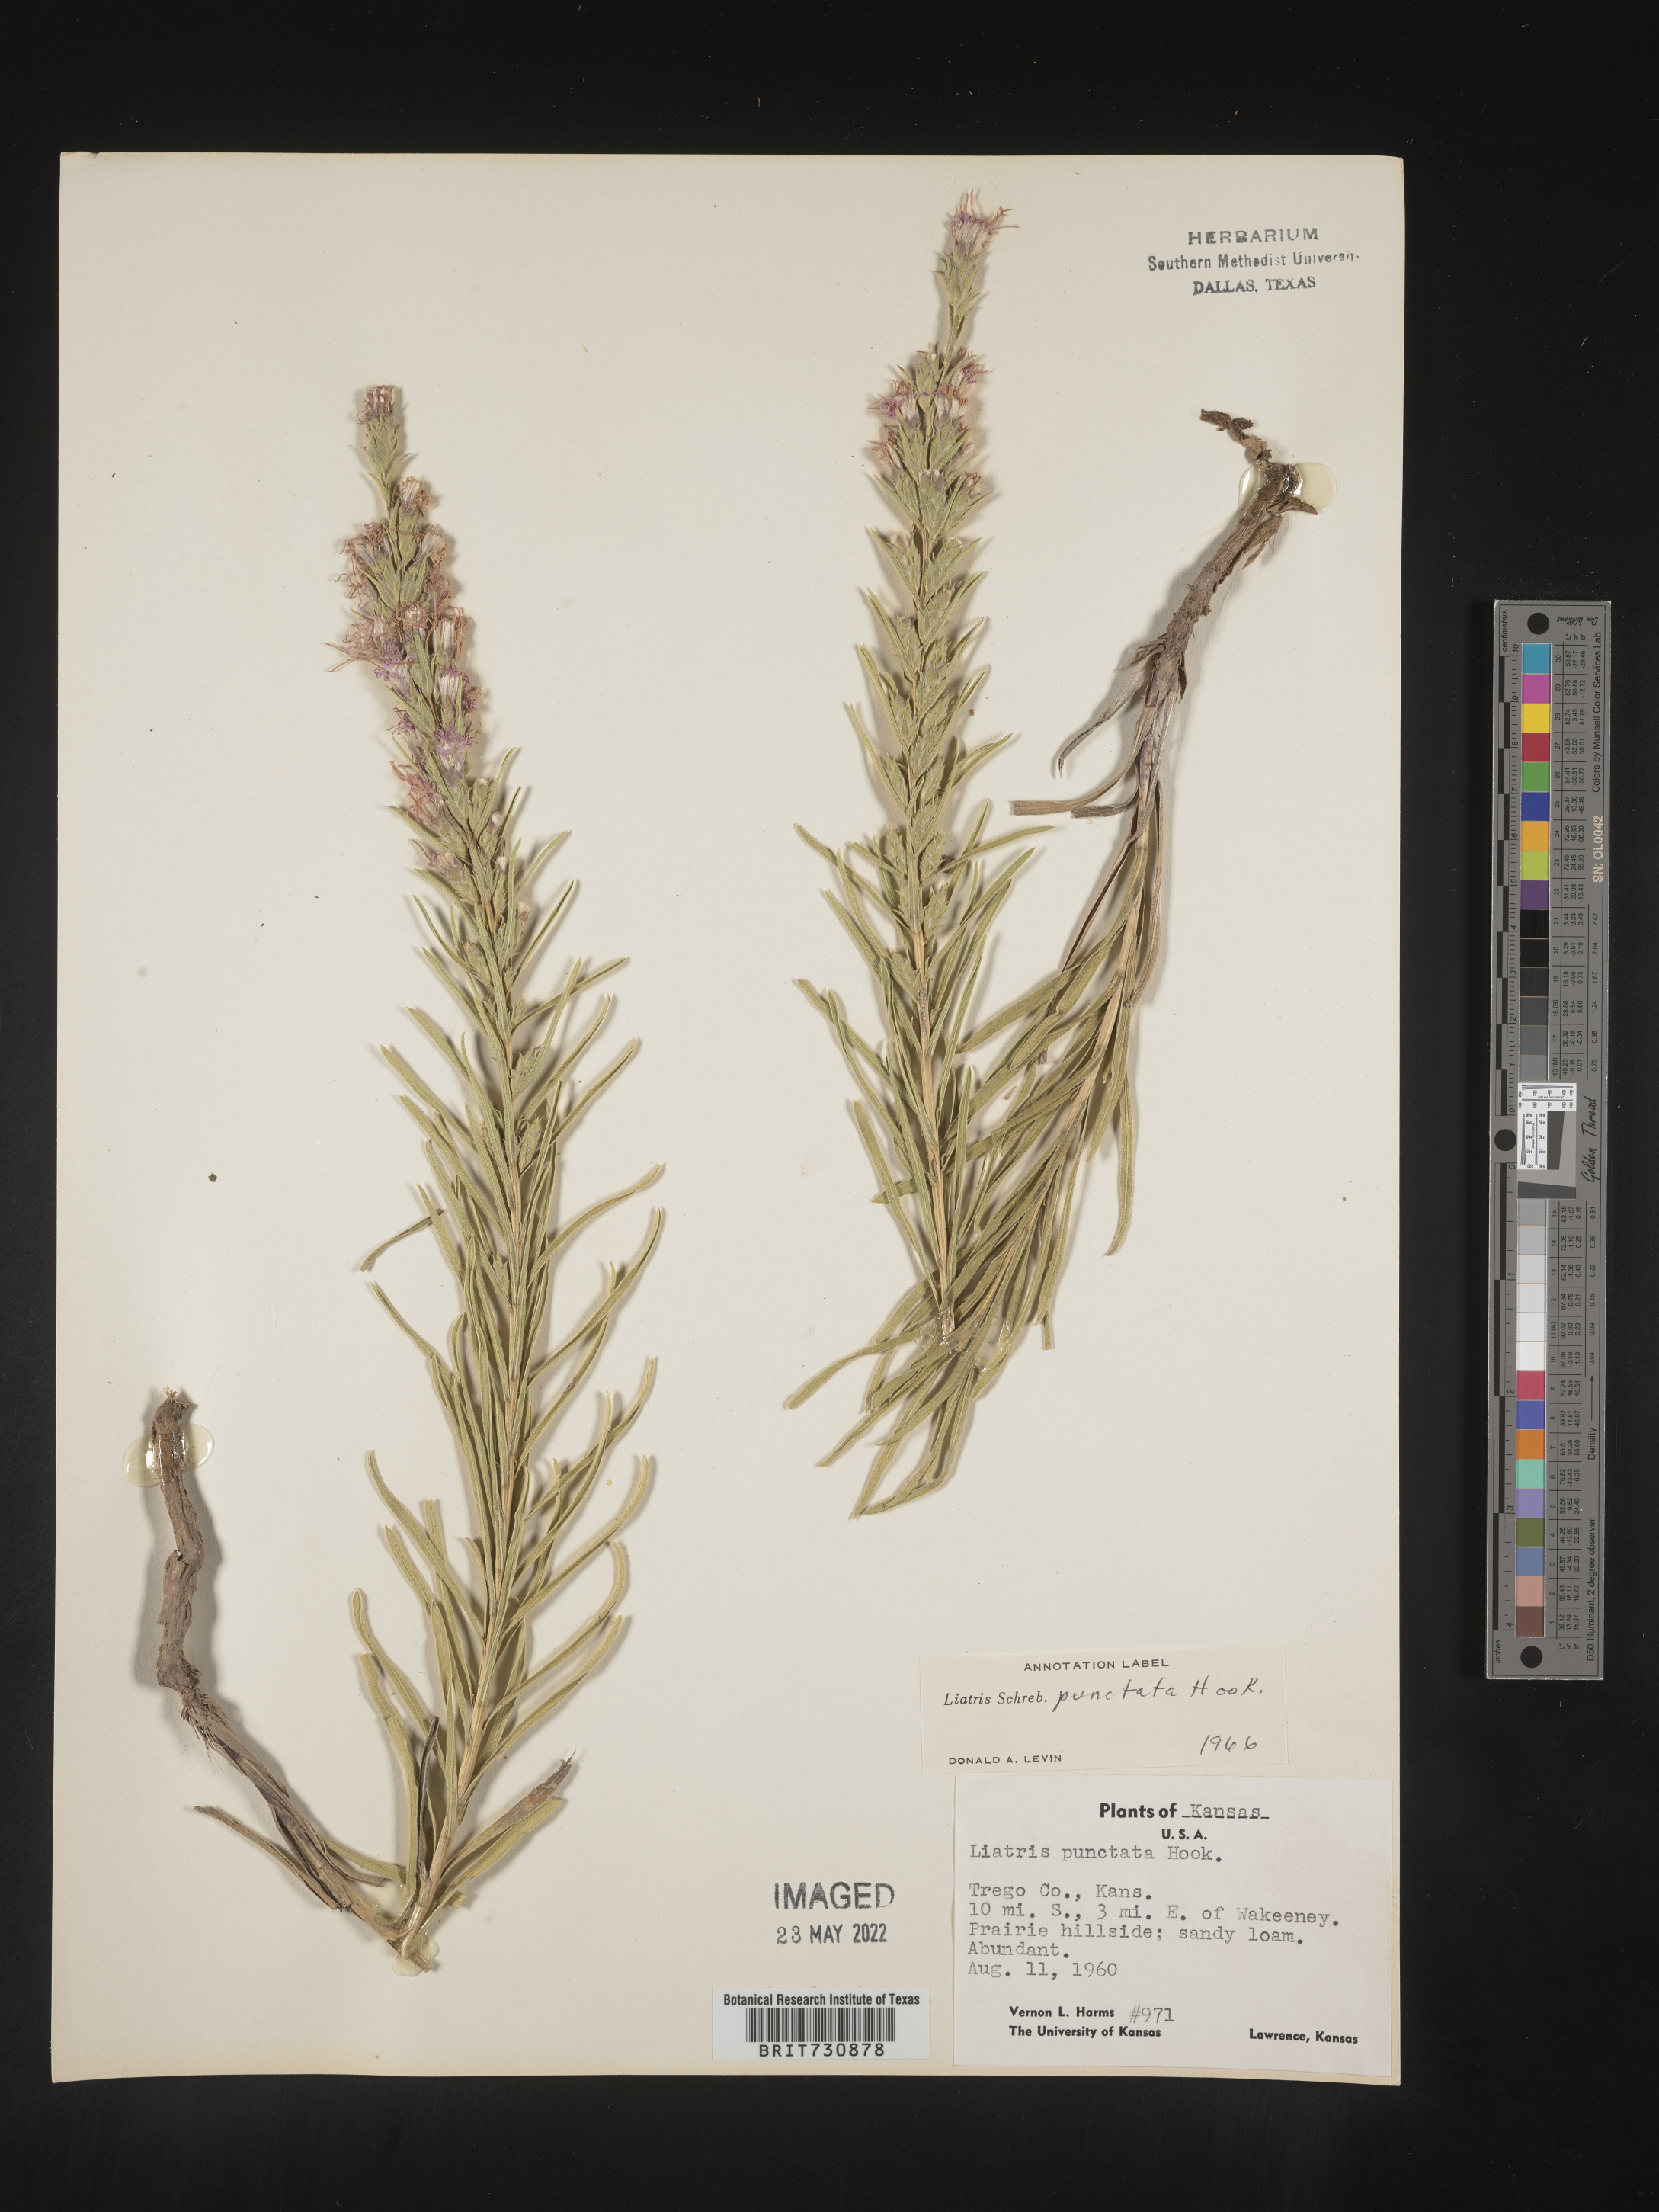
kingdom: Plantae
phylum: Tracheophyta
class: Magnoliopsida
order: Asterales
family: Asteraceae
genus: Liatris
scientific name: Liatris punctata
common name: Dotted gayfeather
